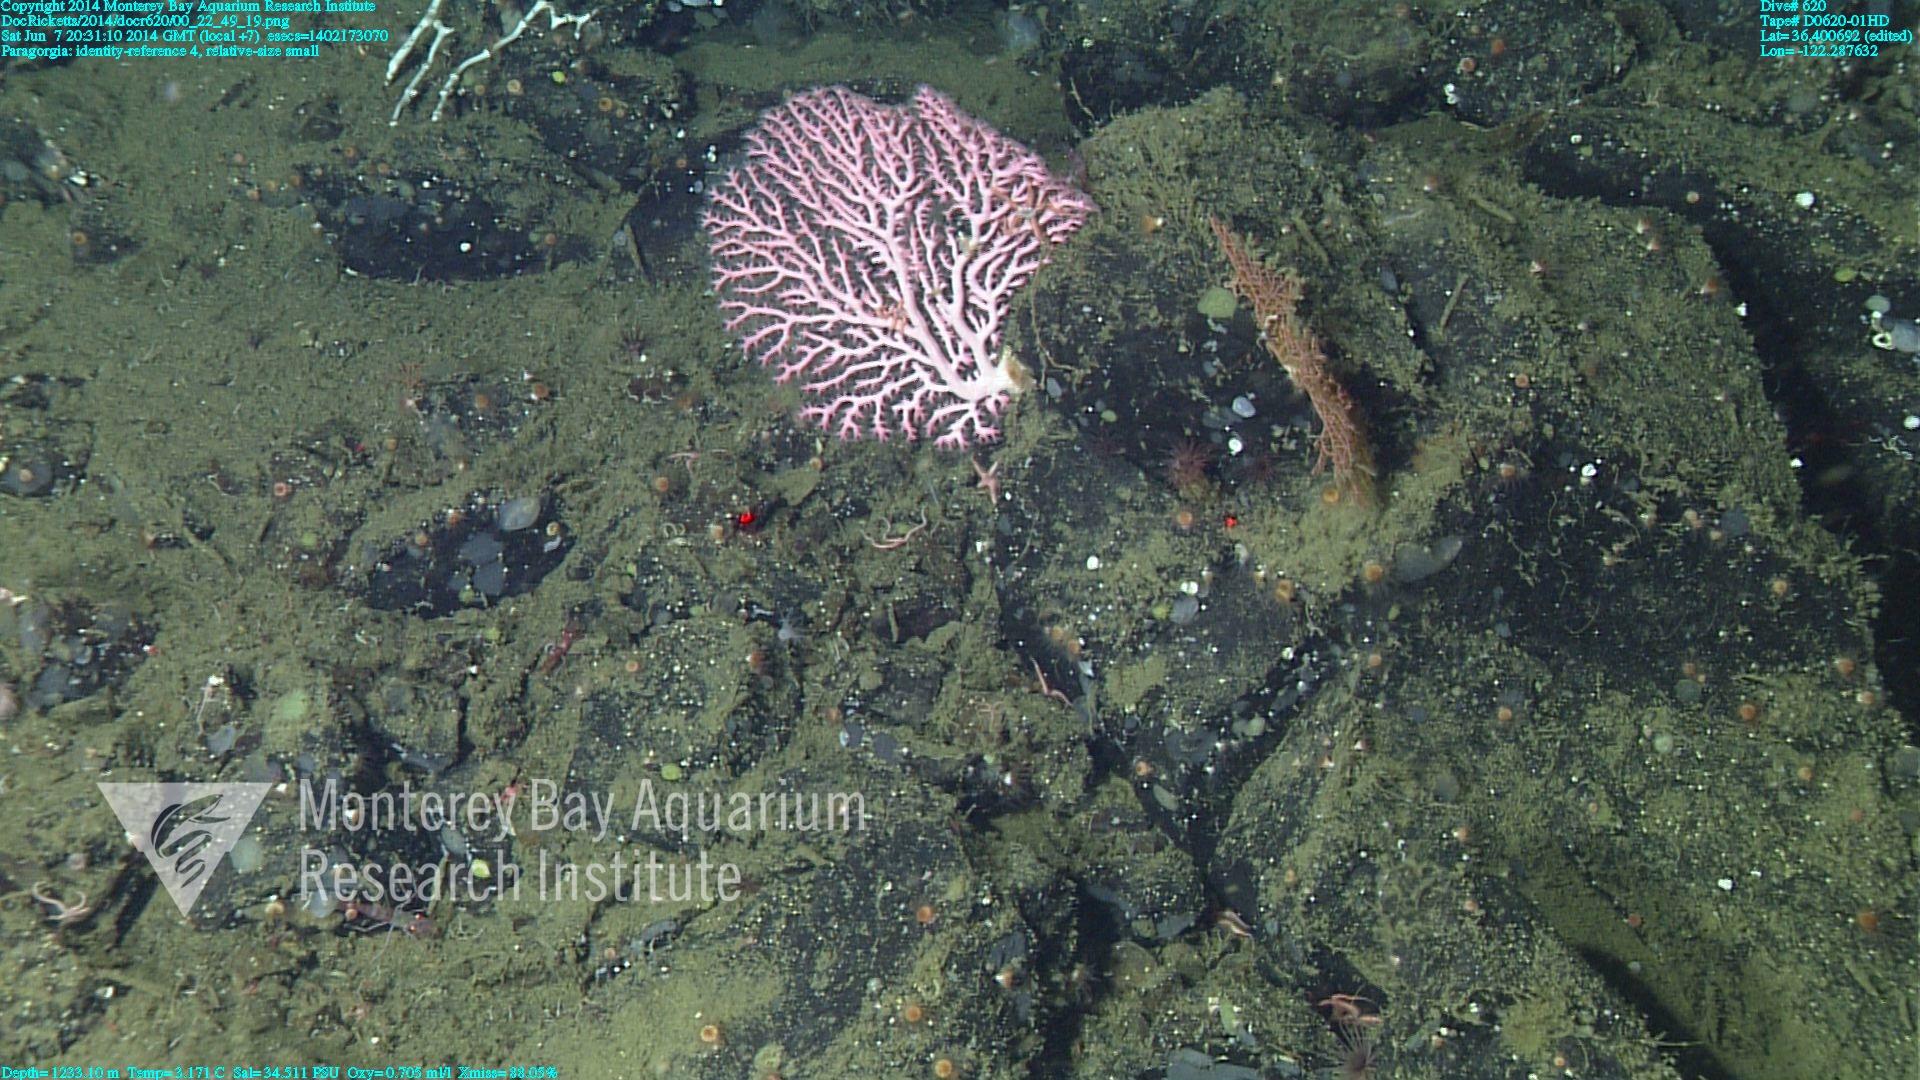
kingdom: Animalia
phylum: Cnidaria
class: Anthozoa
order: Scleralcyonacea
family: Coralliidae
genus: Paragorgia
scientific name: Paragorgia
